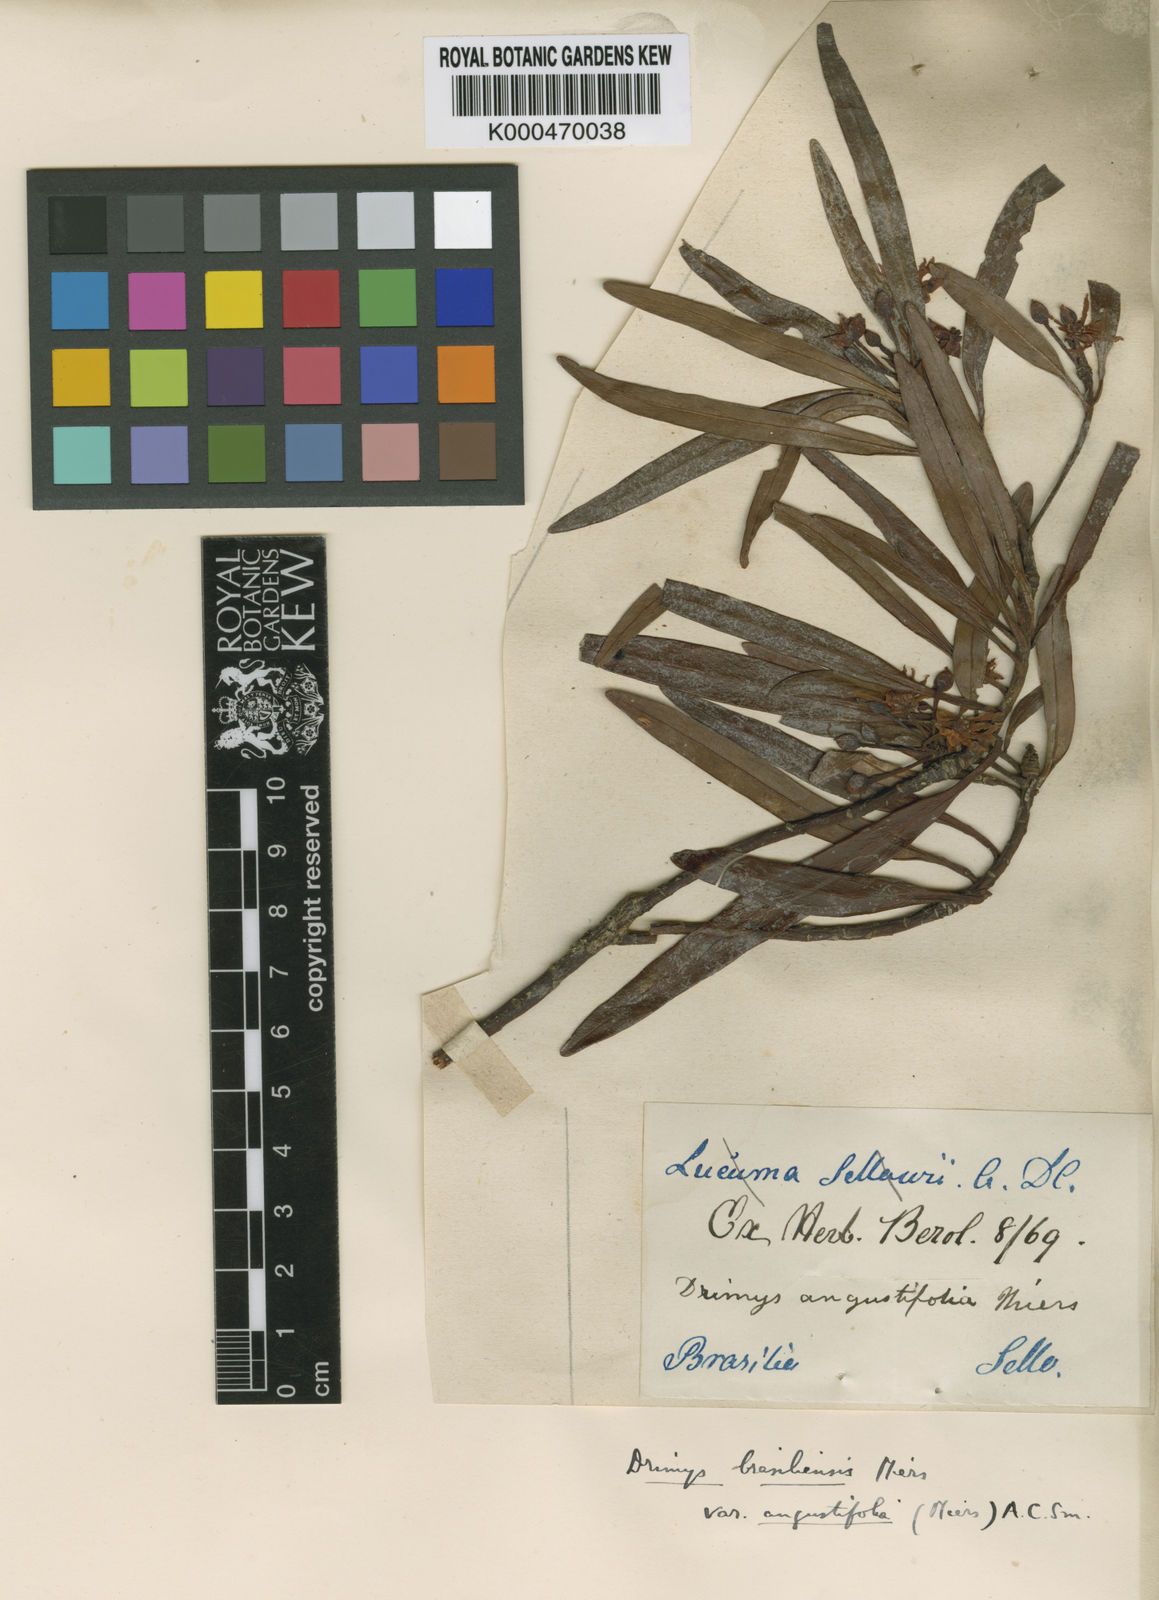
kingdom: Plantae
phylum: Tracheophyta
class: Magnoliopsida
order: Canellales
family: Winteraceae
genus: Drimys
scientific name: Drimys angustifolia
